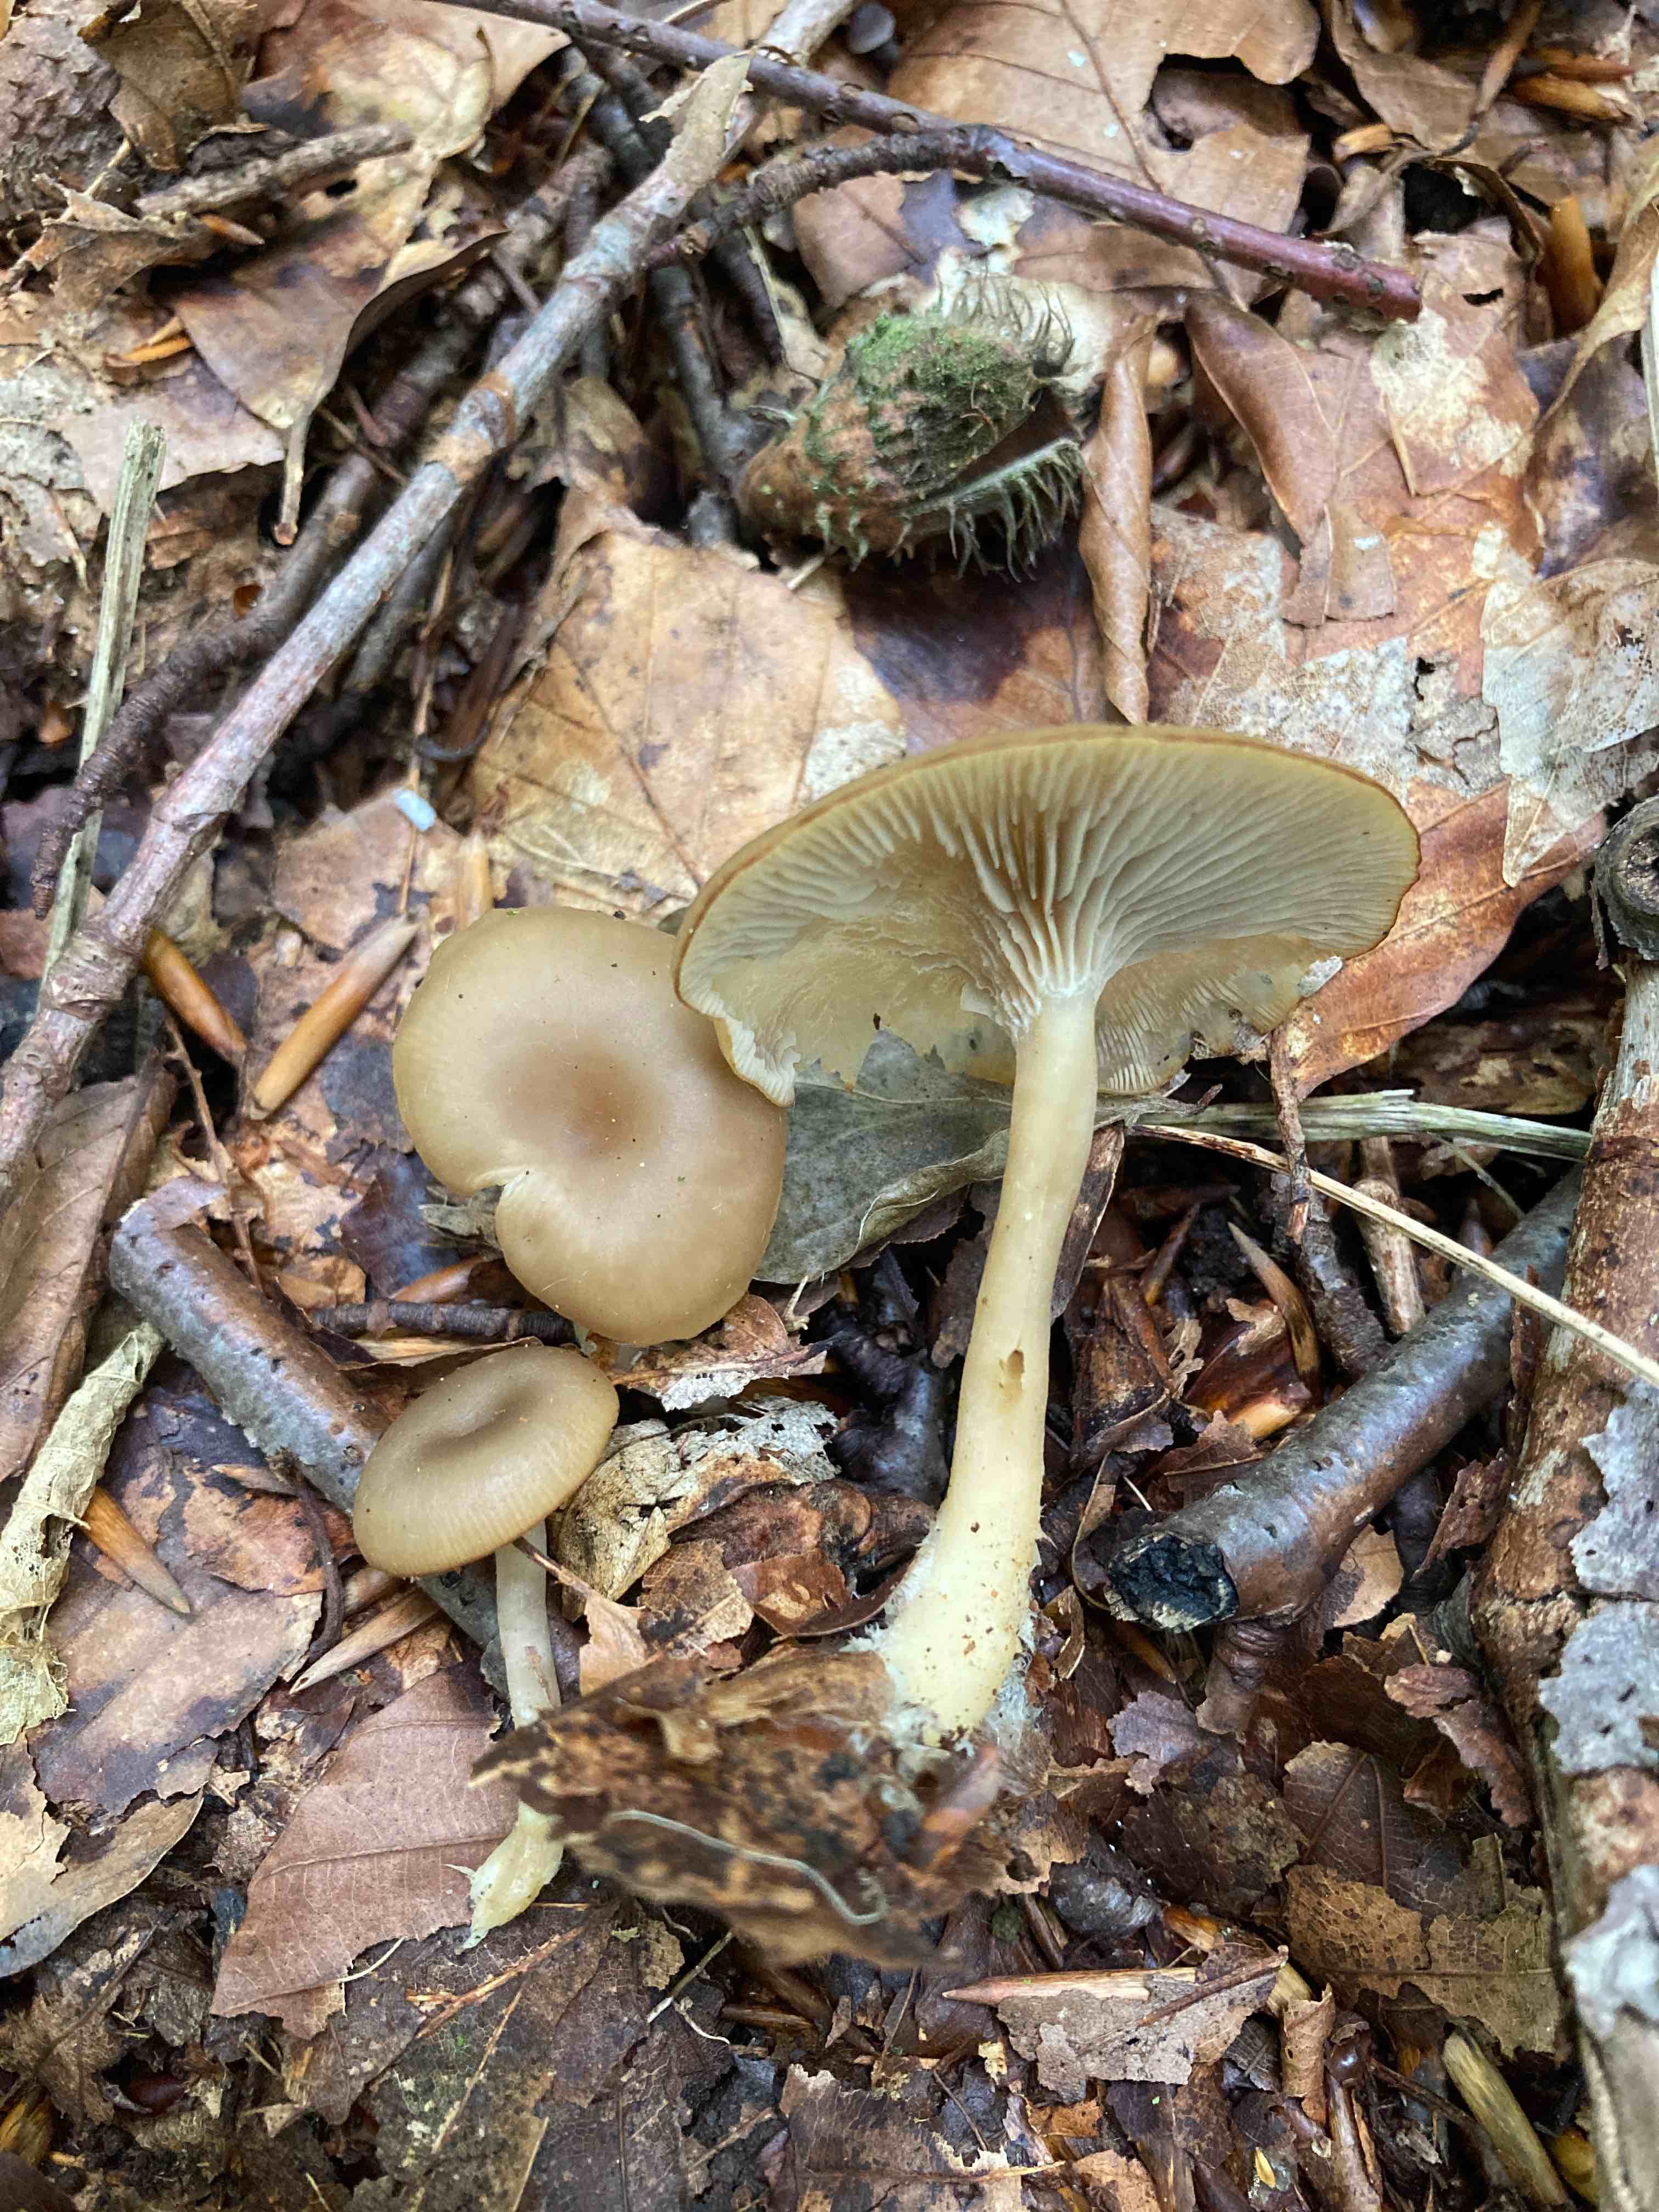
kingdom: Fungi
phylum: Basidiomycota
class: Agaricomycetes
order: Agaricales
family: Lyophyllaceae
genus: Clitolyophyllum
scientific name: Clitolyophyllum akcaabatense
